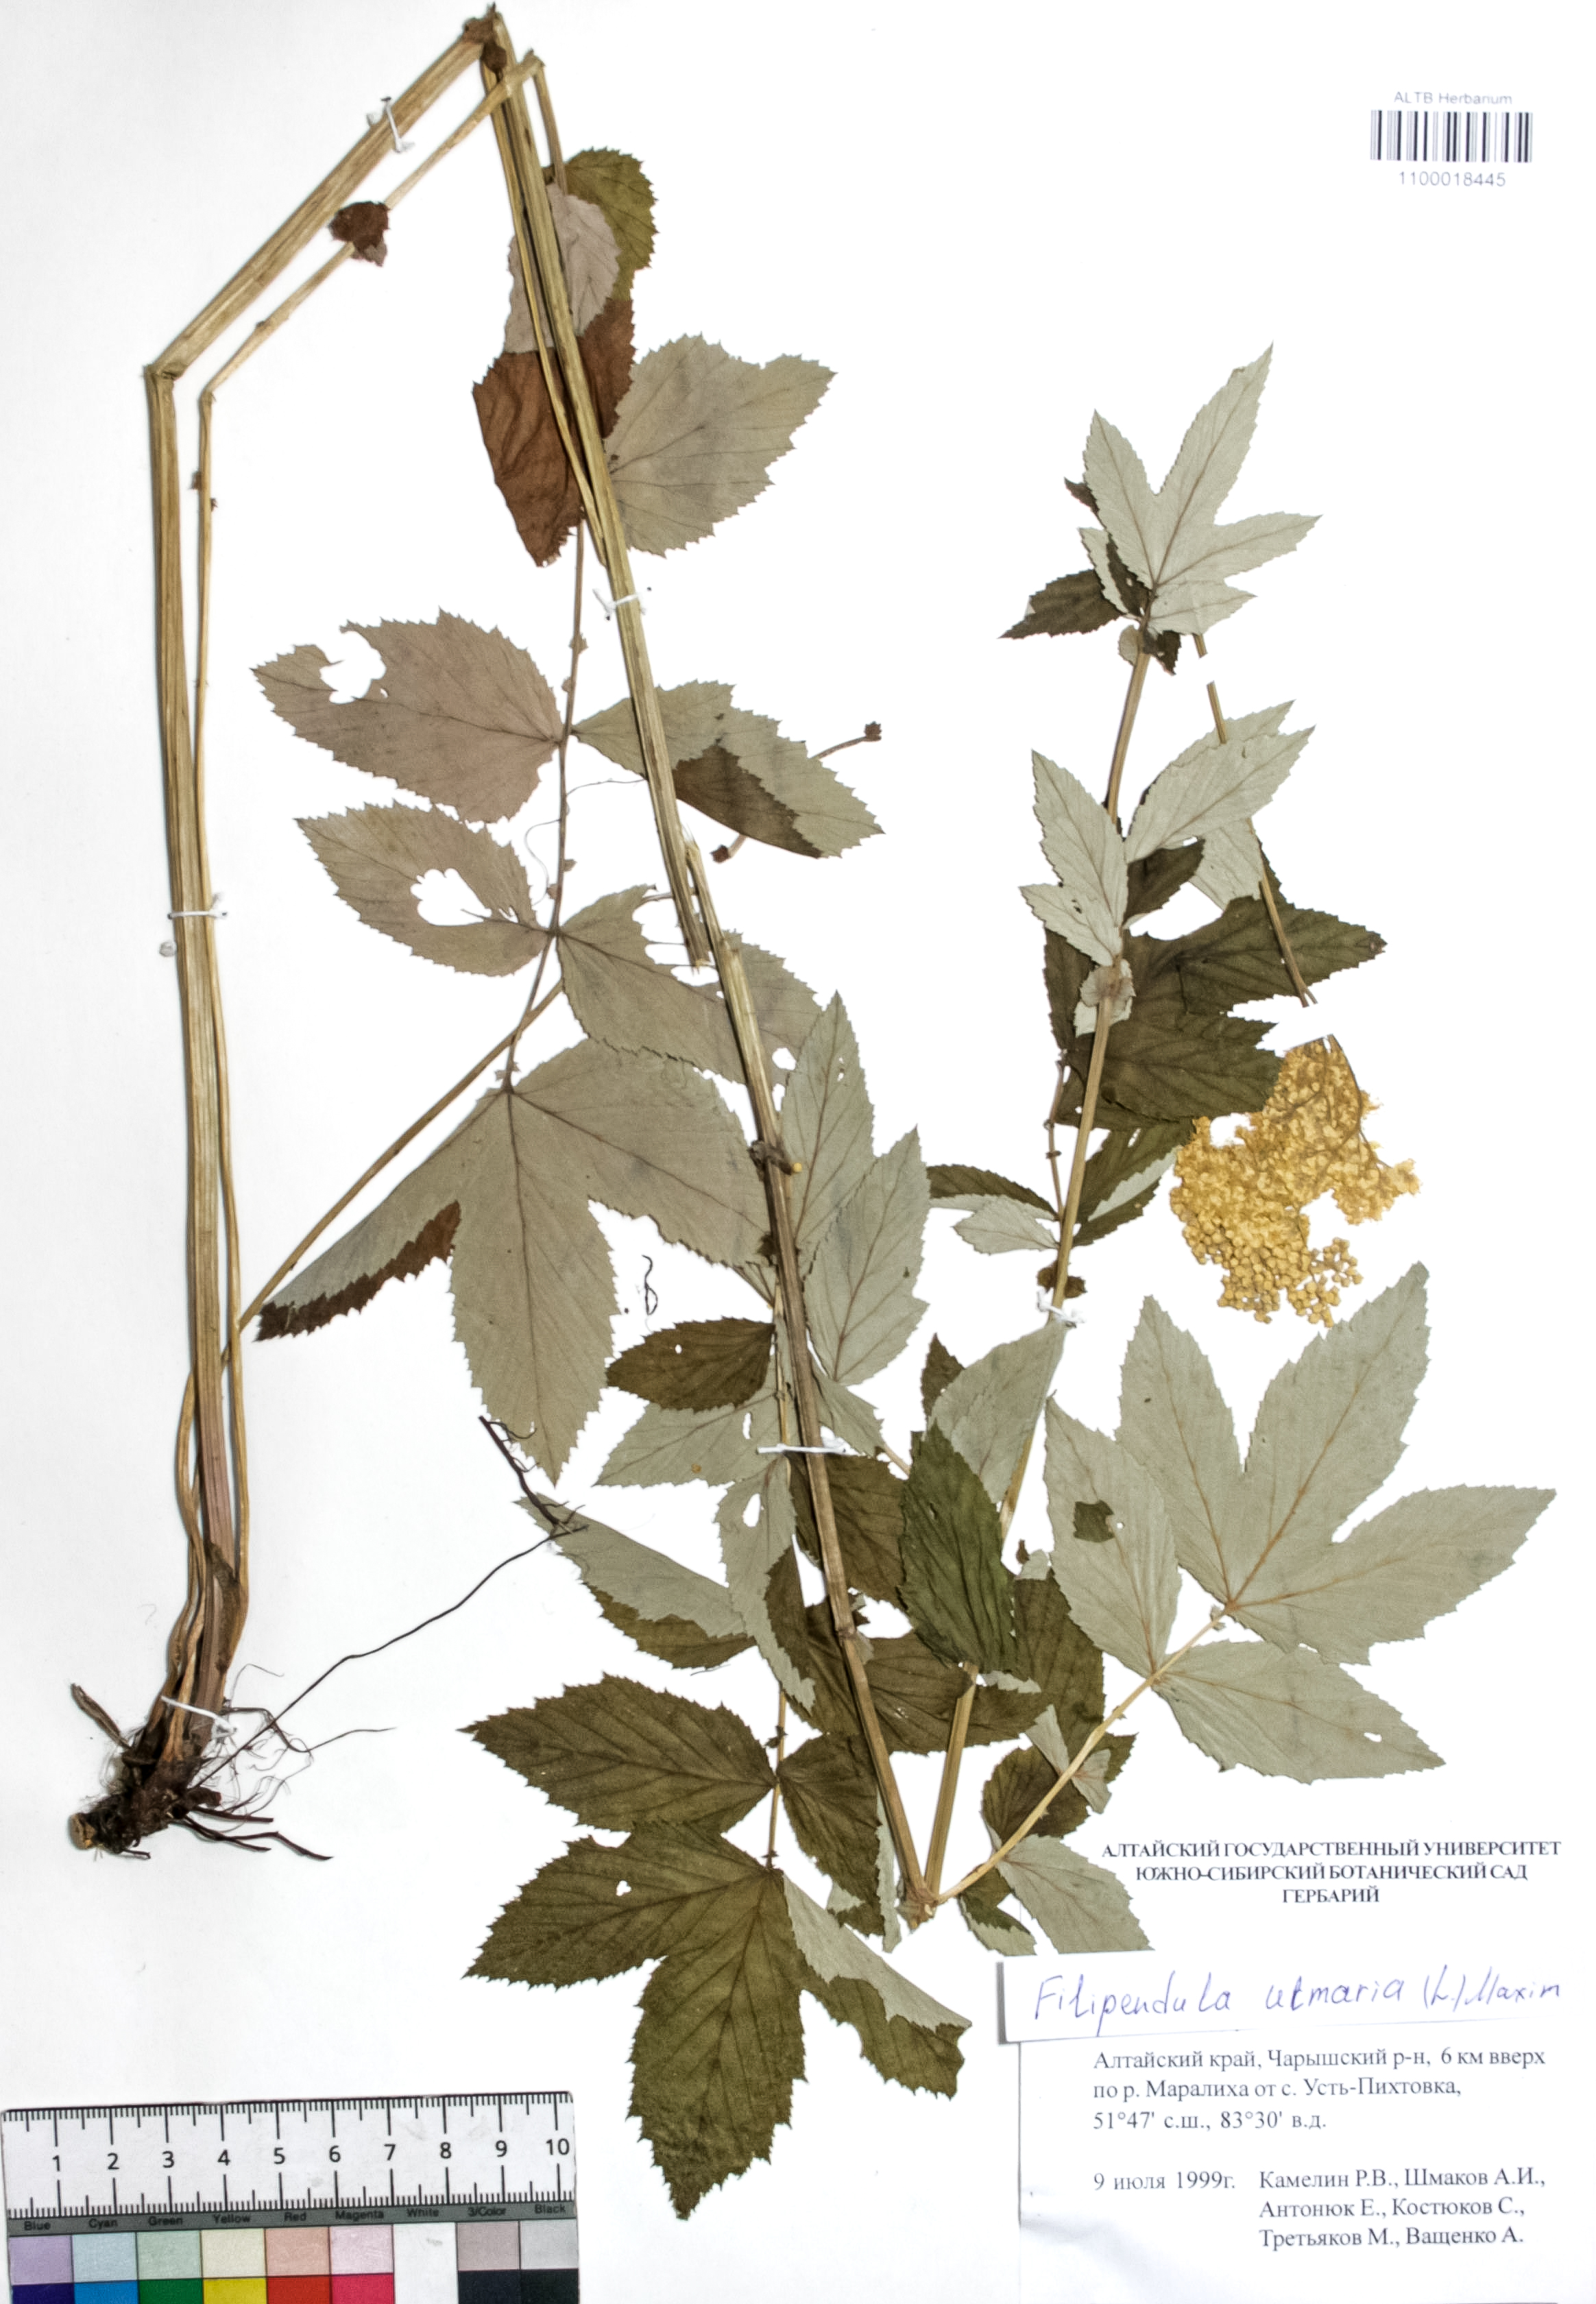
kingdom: Plantae
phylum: Tracheophyta
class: Magnoliopsida
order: Rosales
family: Rosaceae
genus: Filipendula
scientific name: Filipendula ulmaria
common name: Meadowsweet
